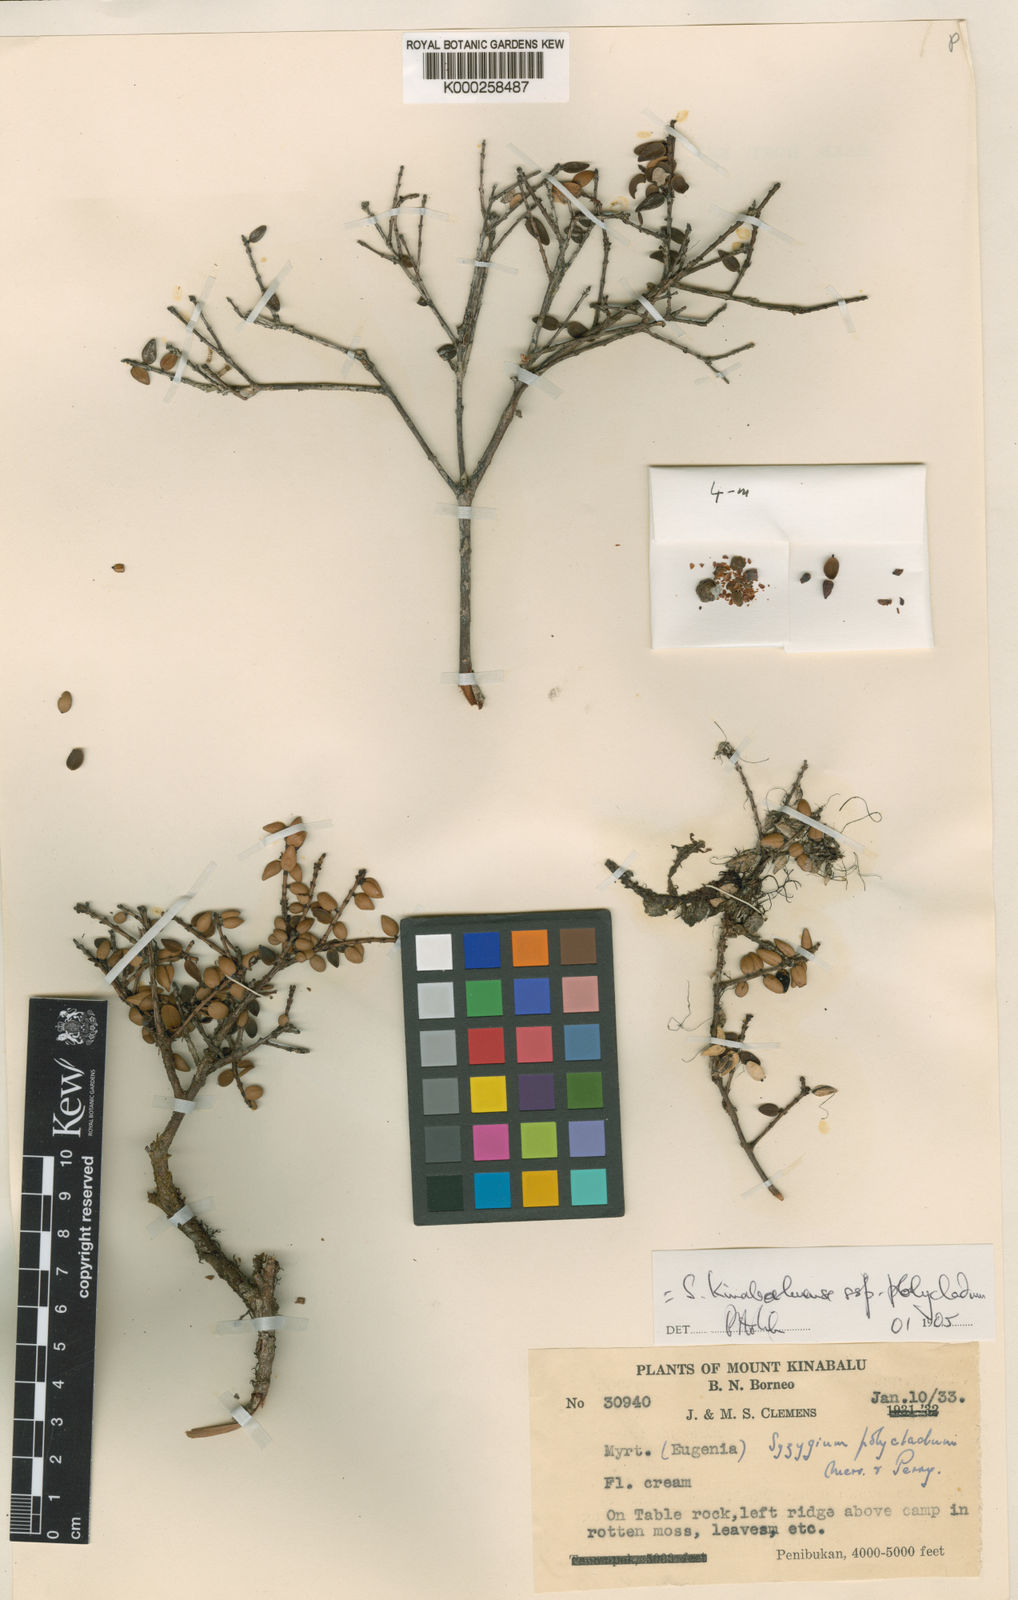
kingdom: Plantae
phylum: Tracheophyta
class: Magnoliopsida
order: Myrtales
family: Myrtaceae
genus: Syzygium
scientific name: Syzygium kinabaluense
